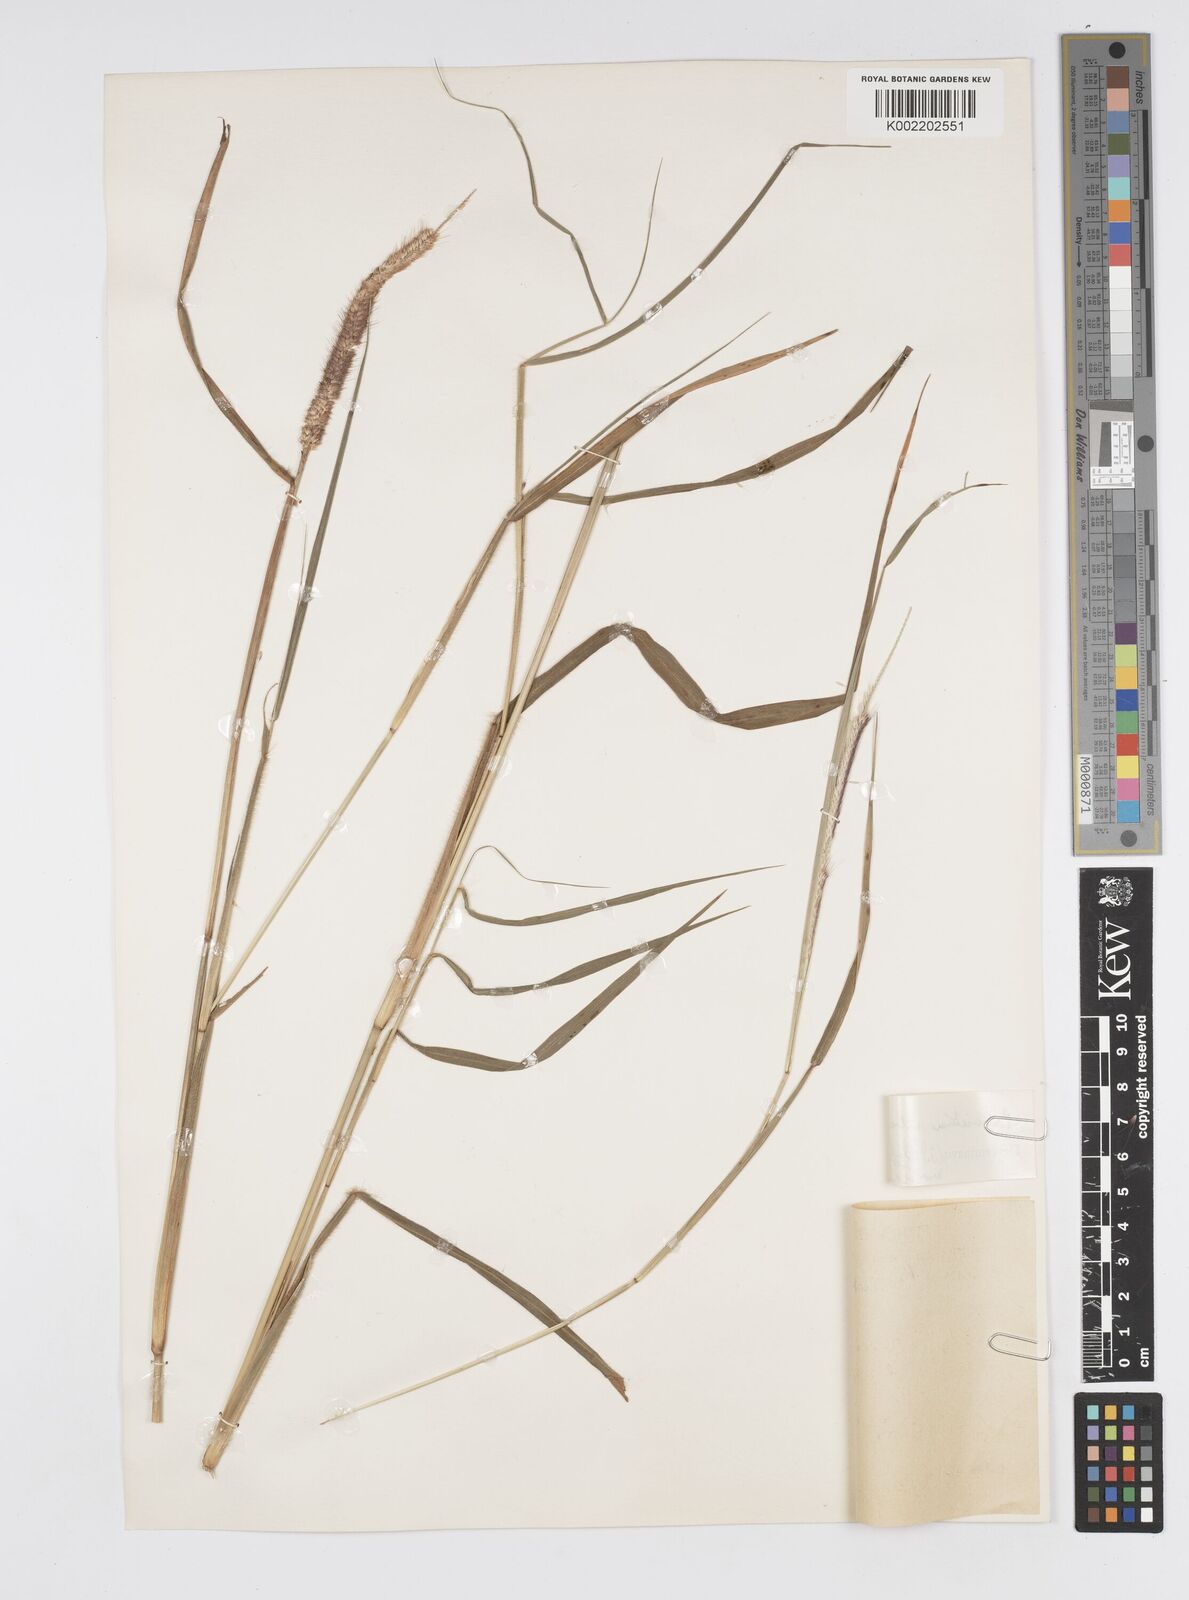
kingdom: Plantae
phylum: Tracheophyta
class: Liliopsida
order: Poales
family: Poaceae
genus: Setaria
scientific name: Setaria parviflora
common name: Knotroot bristle-grass
